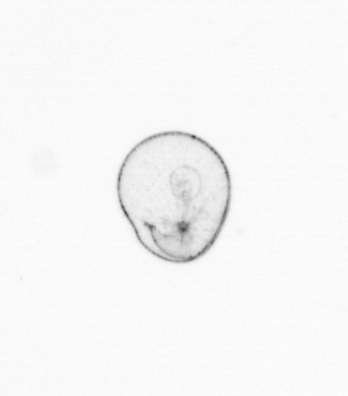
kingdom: Chromista
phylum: Myzozoa
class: Dinophyceae
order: Noctilucales
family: Noctilucaceae
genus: Noctiluca
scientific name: Noctiluca scintillans
